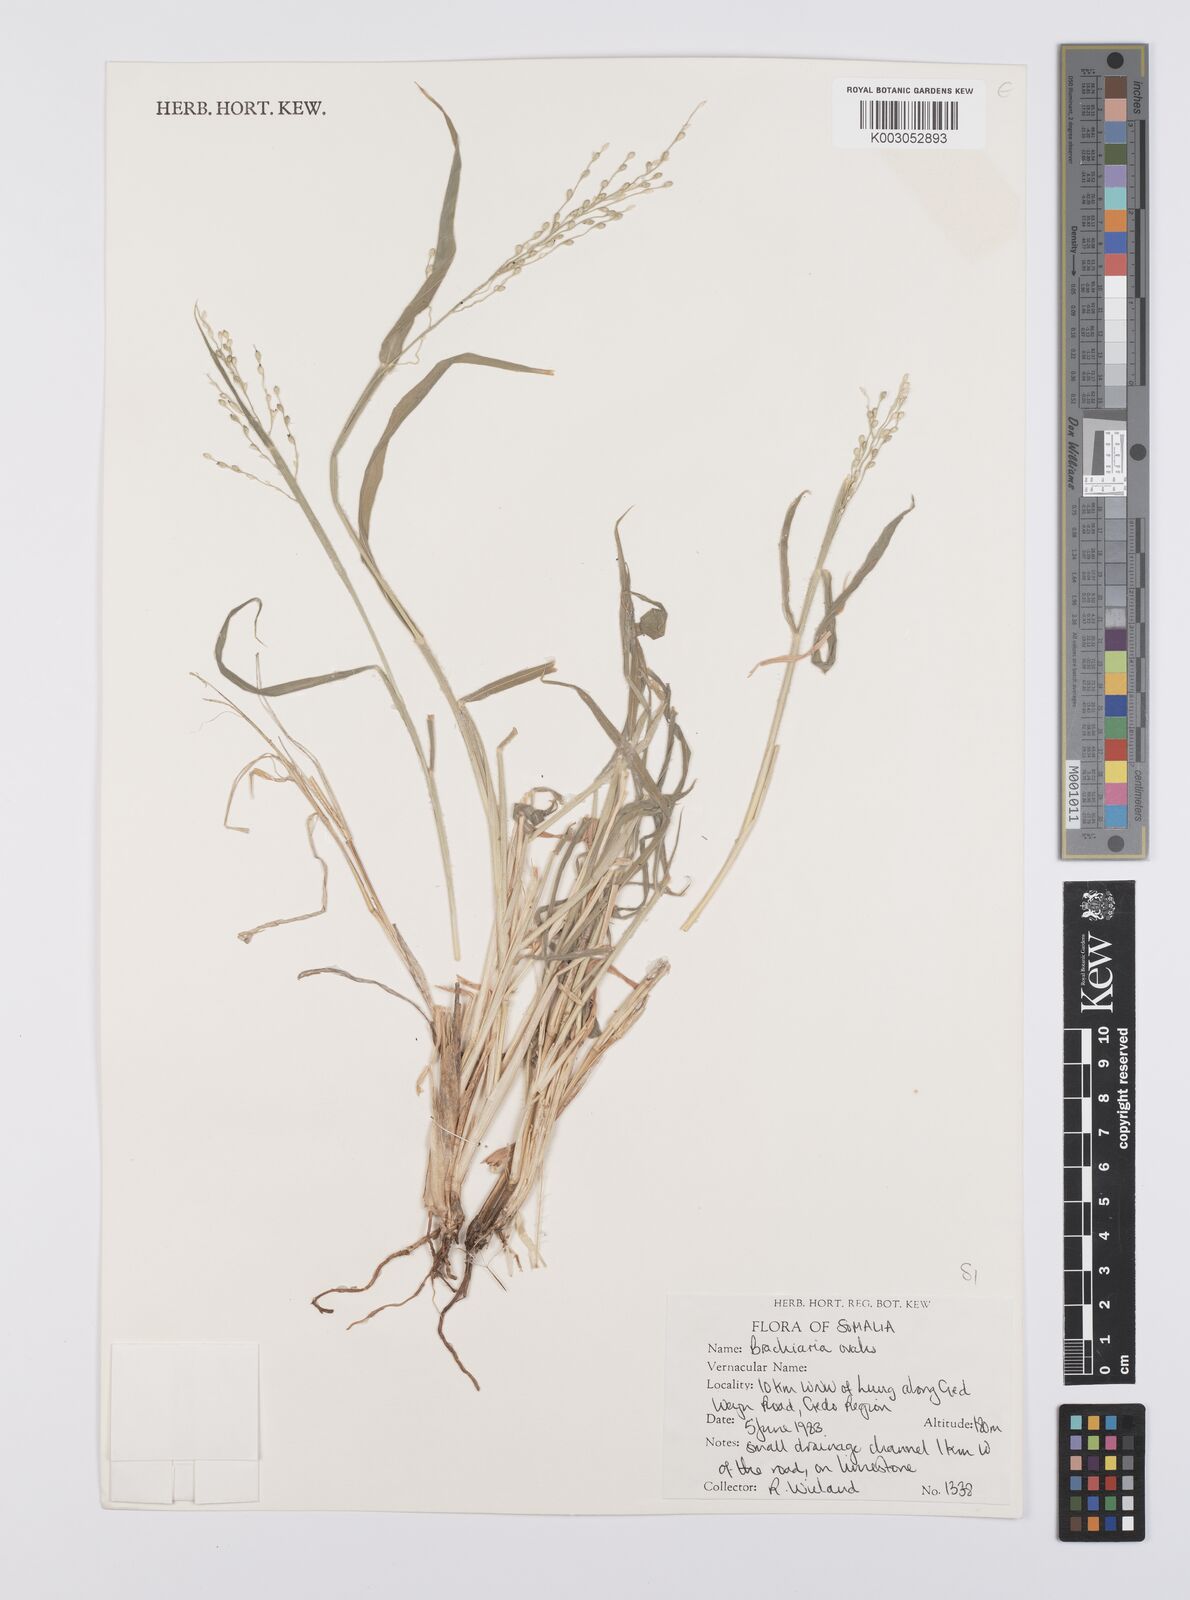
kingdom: Plantae
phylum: Tracheophyta
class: Liliopsida
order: Poales
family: Poaceae
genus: Urochloa
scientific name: Urochloa ovalis
